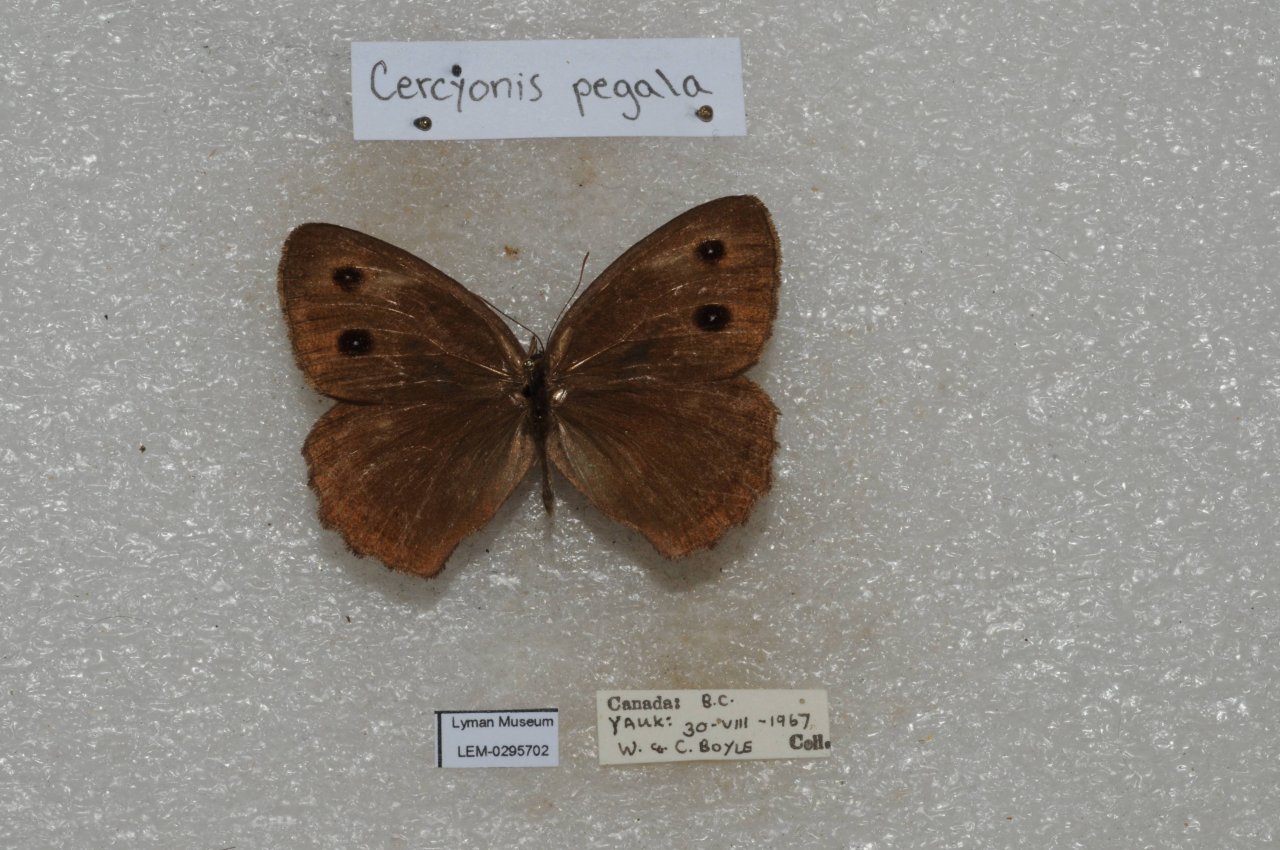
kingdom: Animalia
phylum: Arthropoda
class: Insecta
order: Lepidoptera
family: Nymphalidae
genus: Cercyonis
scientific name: Cercyonis pegala
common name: Common Wood-Nymph
